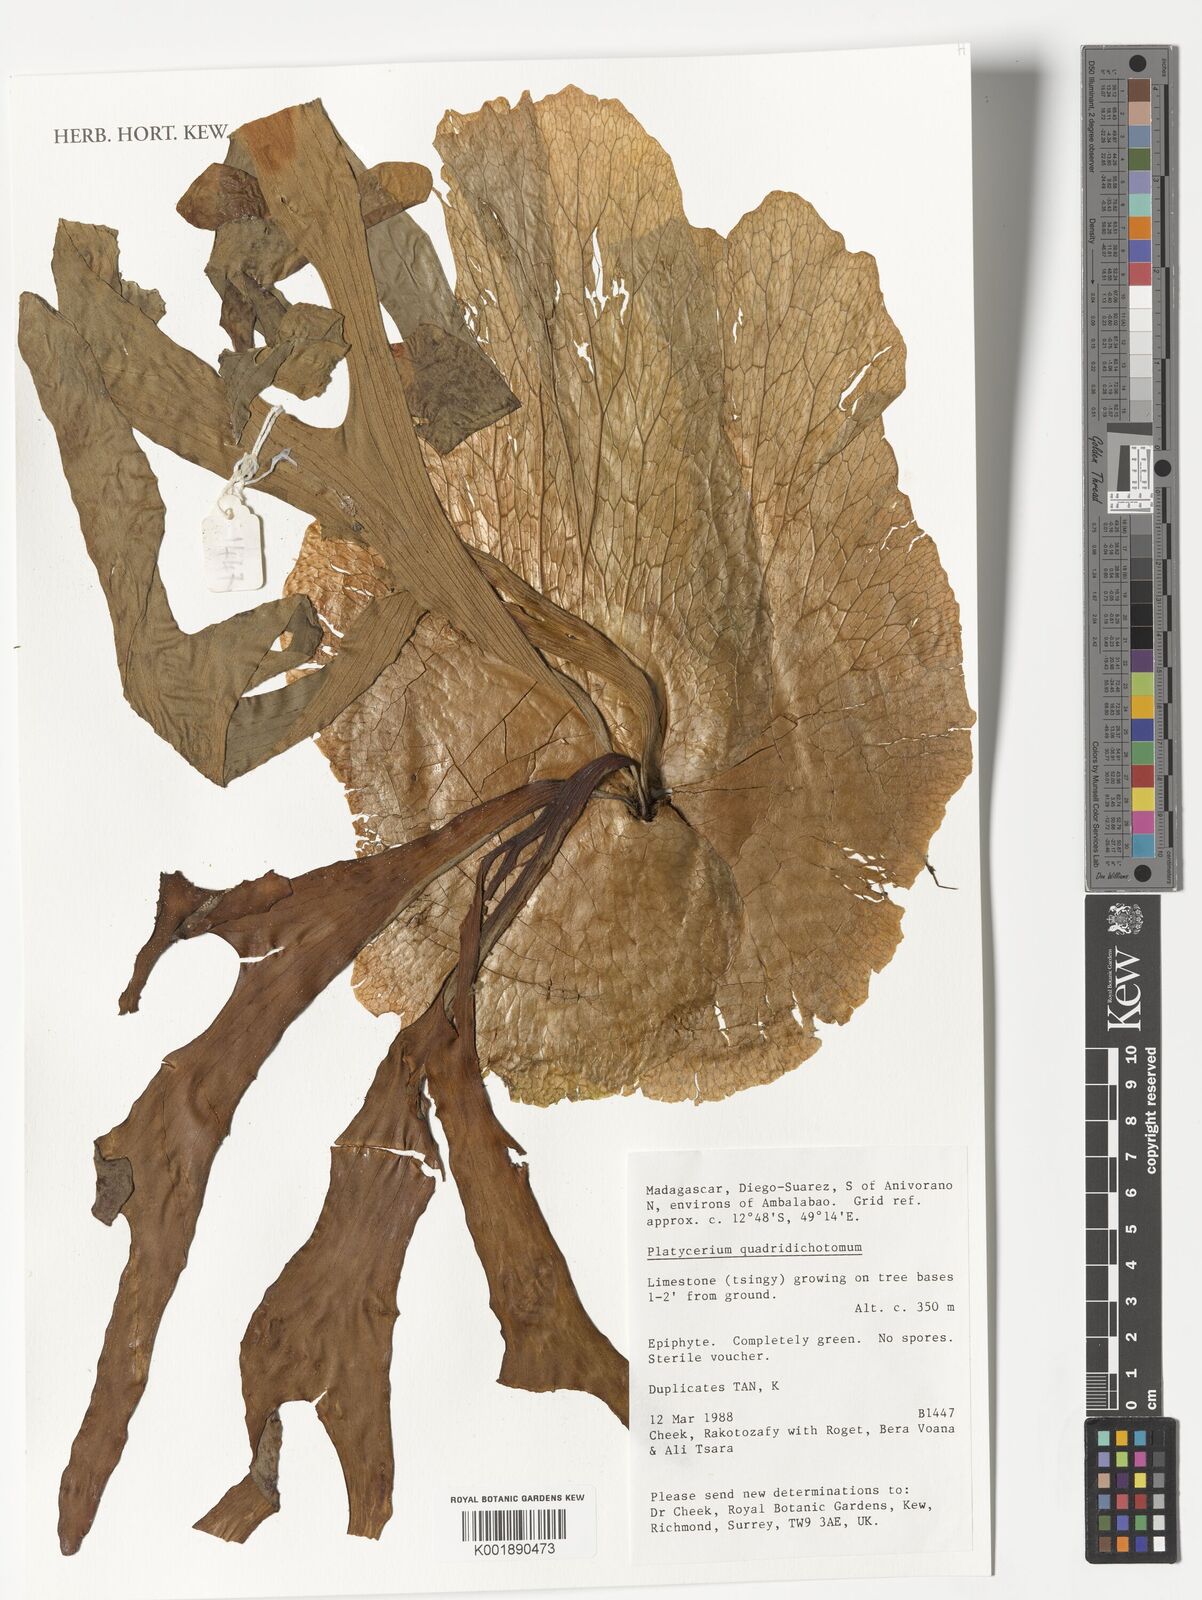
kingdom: Plantae
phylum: Tracheophyta
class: Polypodiopsida
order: Polypodiales
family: Polypodiaceae
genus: Platycerium
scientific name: Platycerium quadridichotomum
